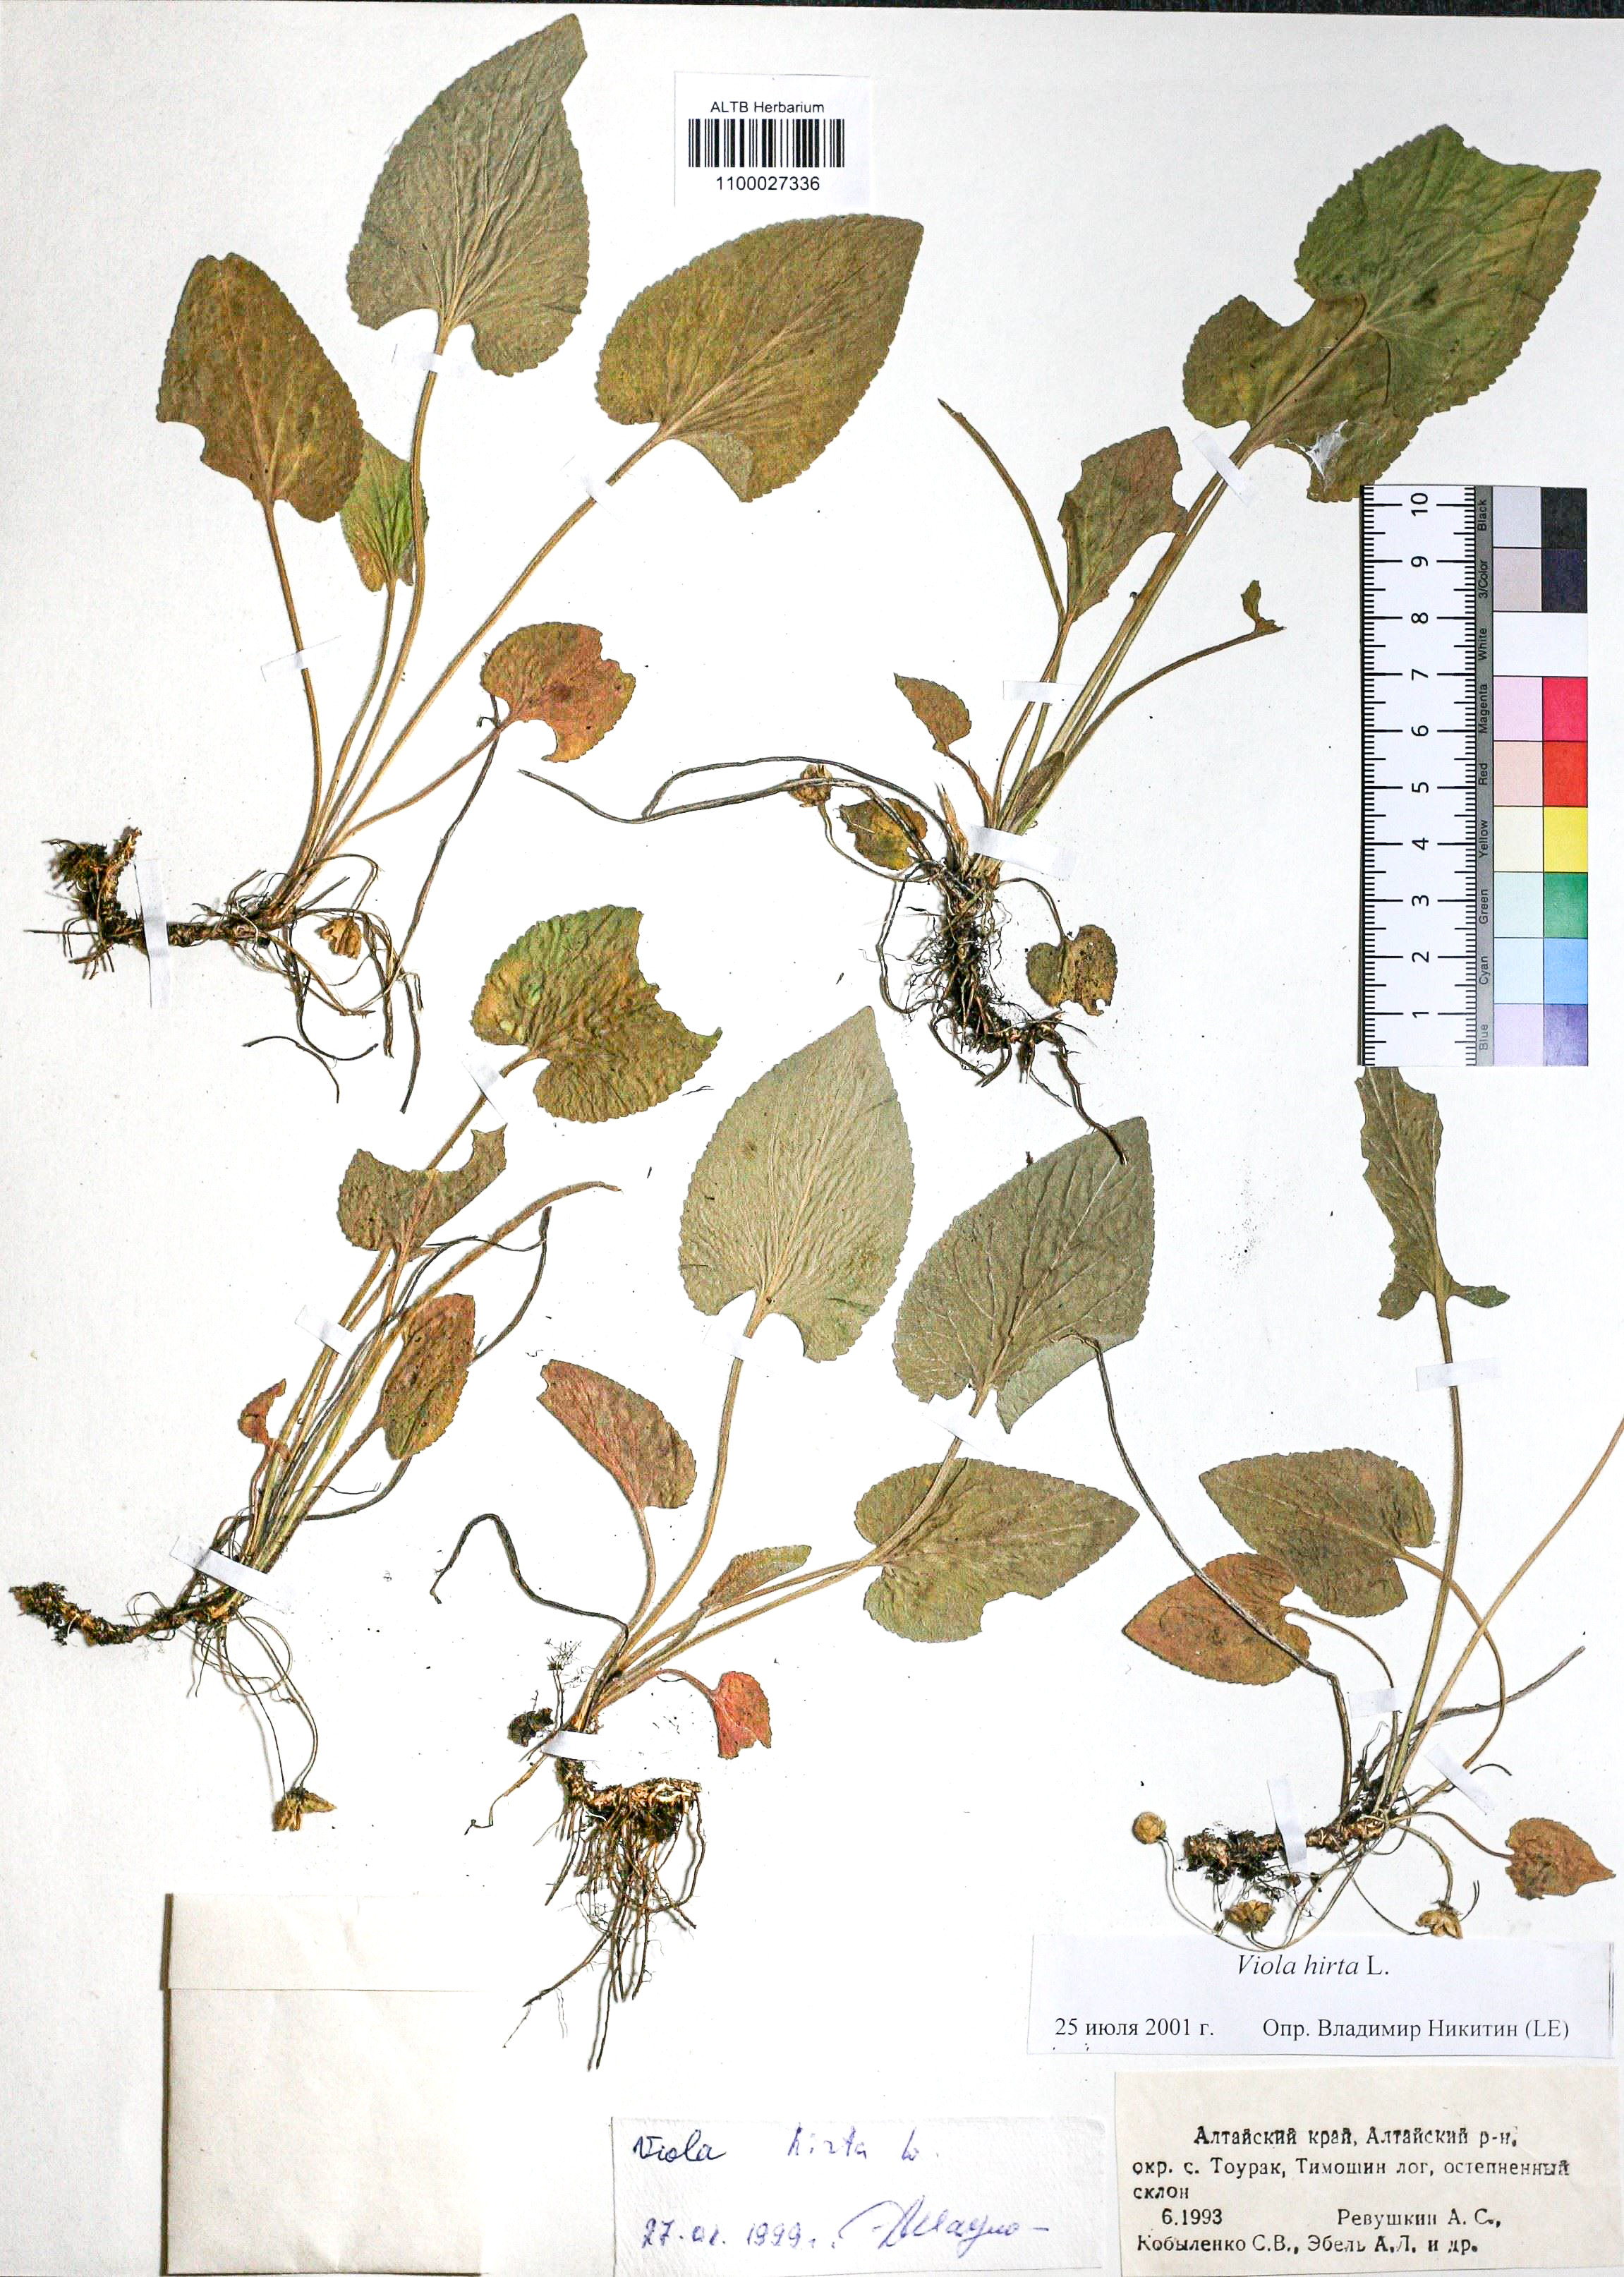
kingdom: Plantae
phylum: Tracheophyta
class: Magnoliopsida
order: Malpighiales
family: Violaceae
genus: Viola
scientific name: Viola hirta
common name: Hairy violet
